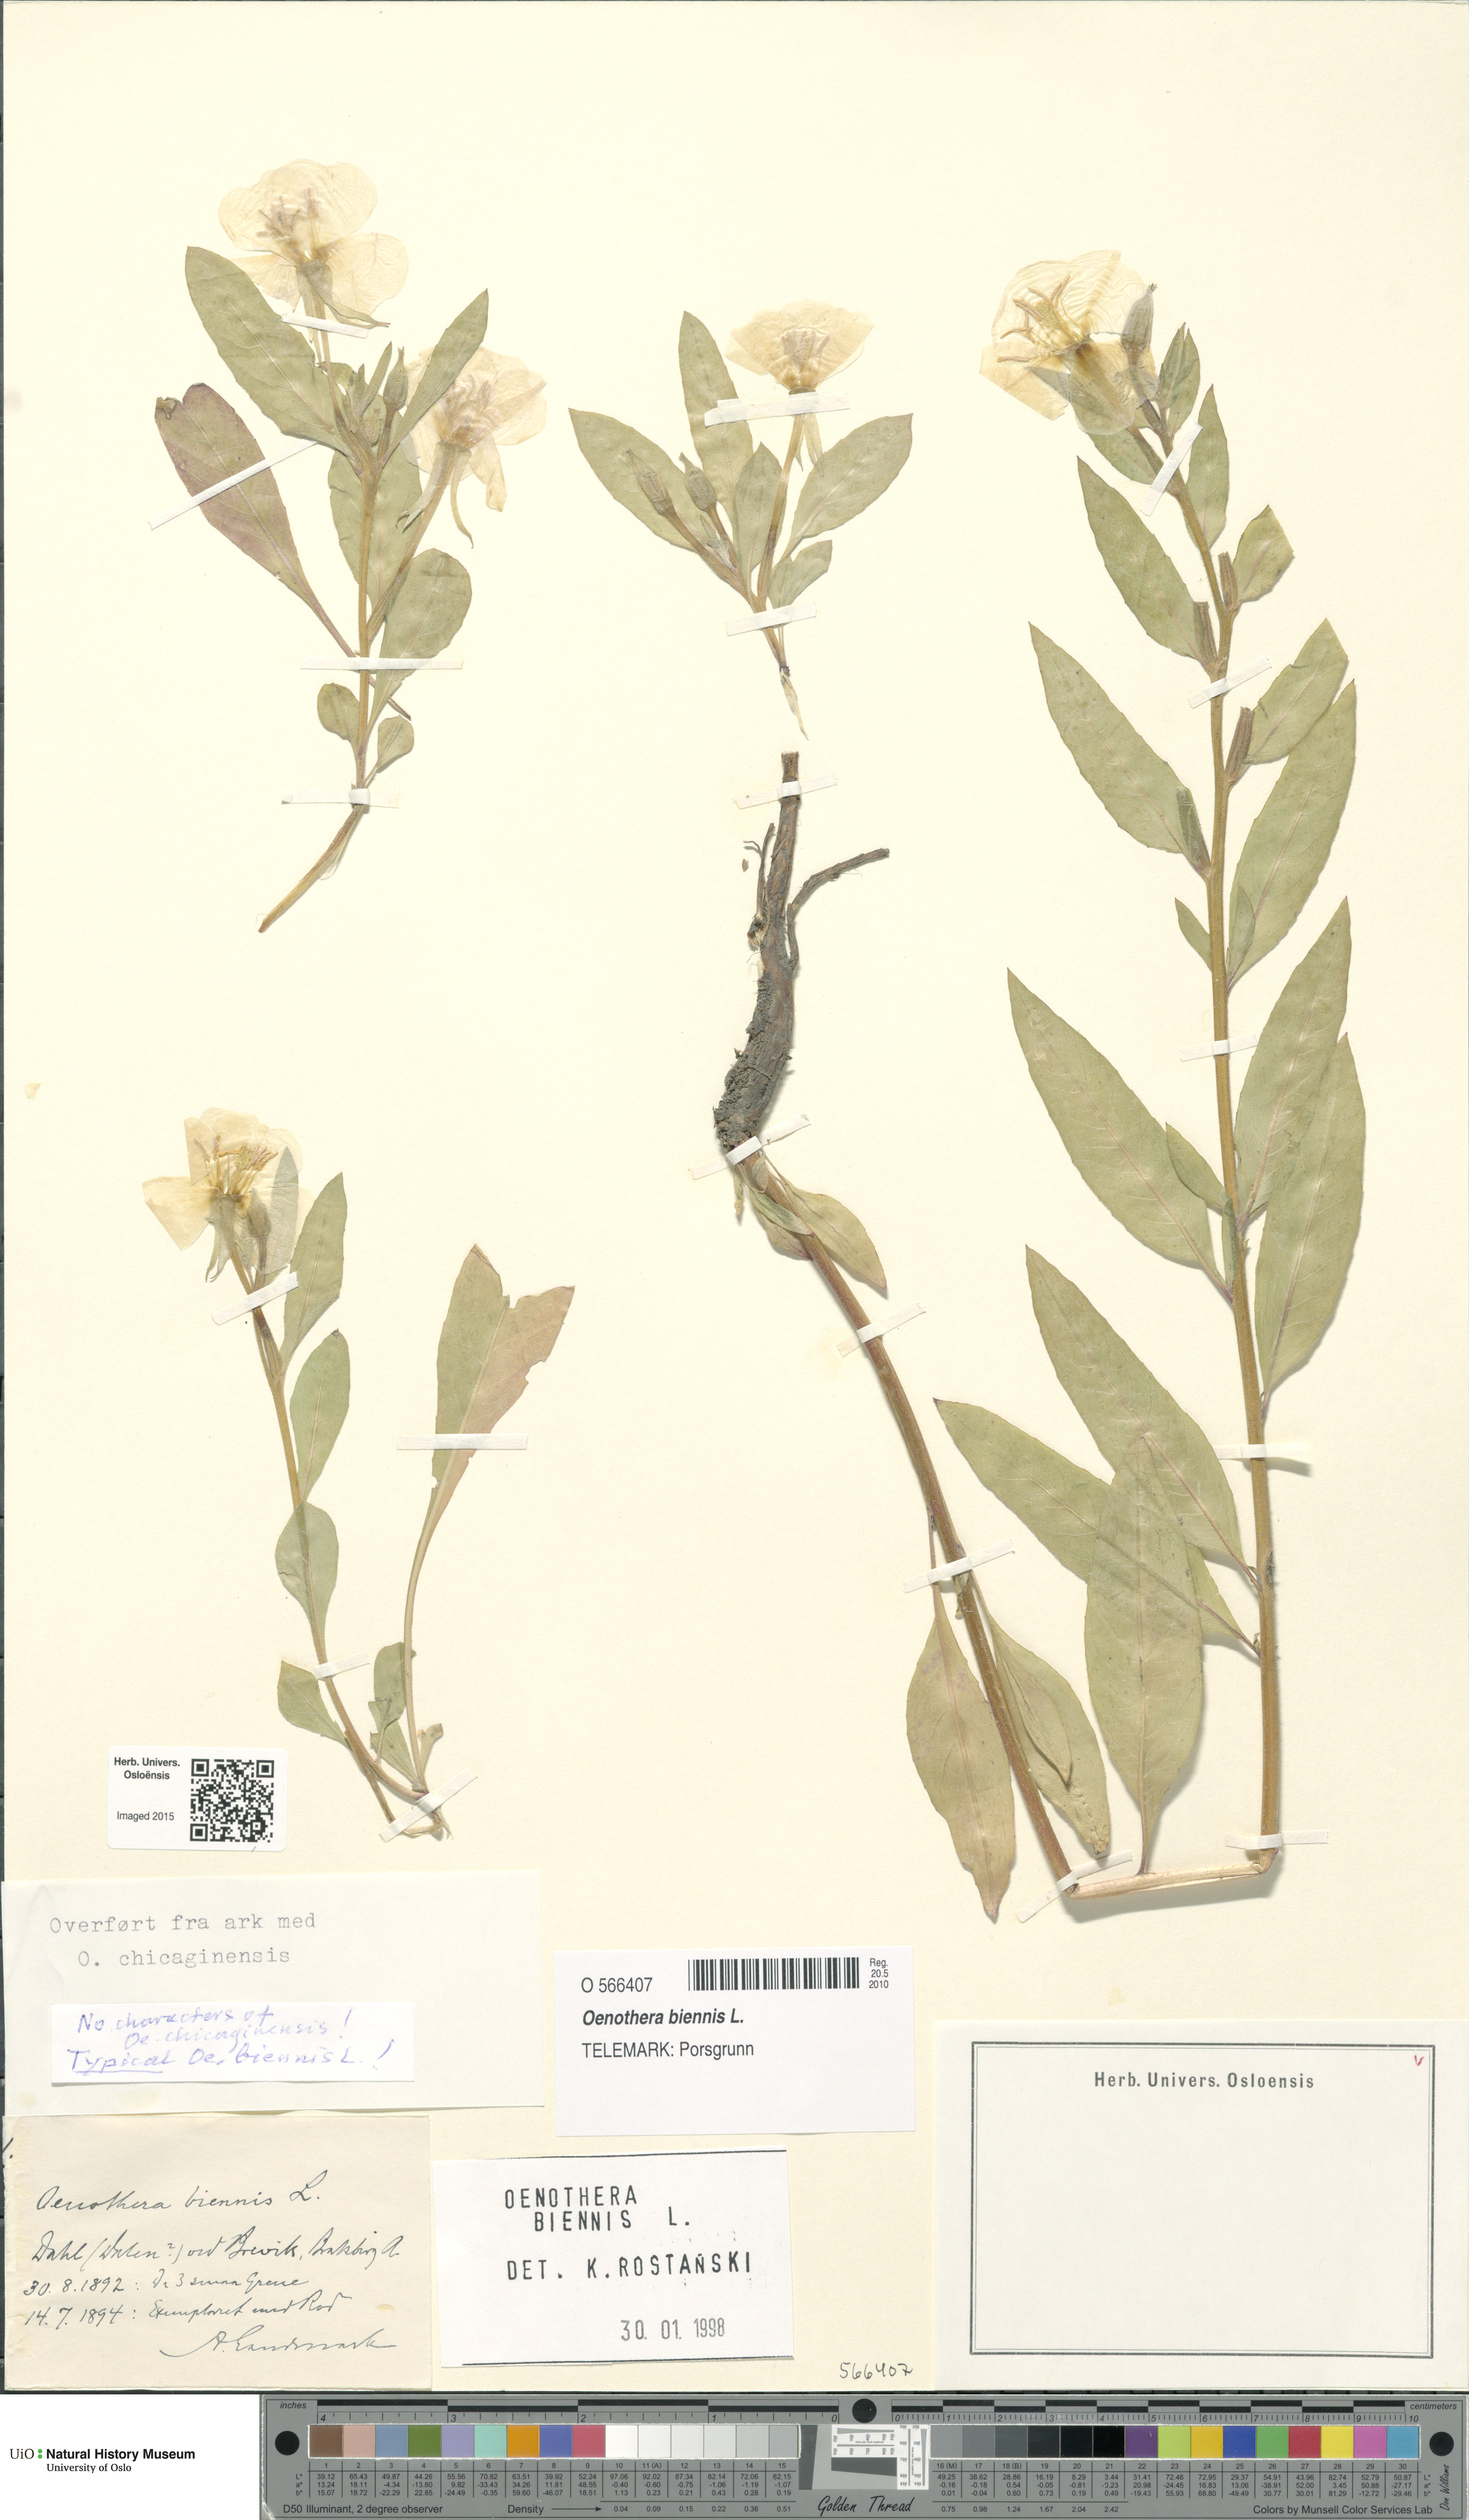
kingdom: Plantae
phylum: Tracheophyta
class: Magnoliopsida
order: Myrtales
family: Onagraceae
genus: Oenothera
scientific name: Oenothera biennis
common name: Common evening-primrose
